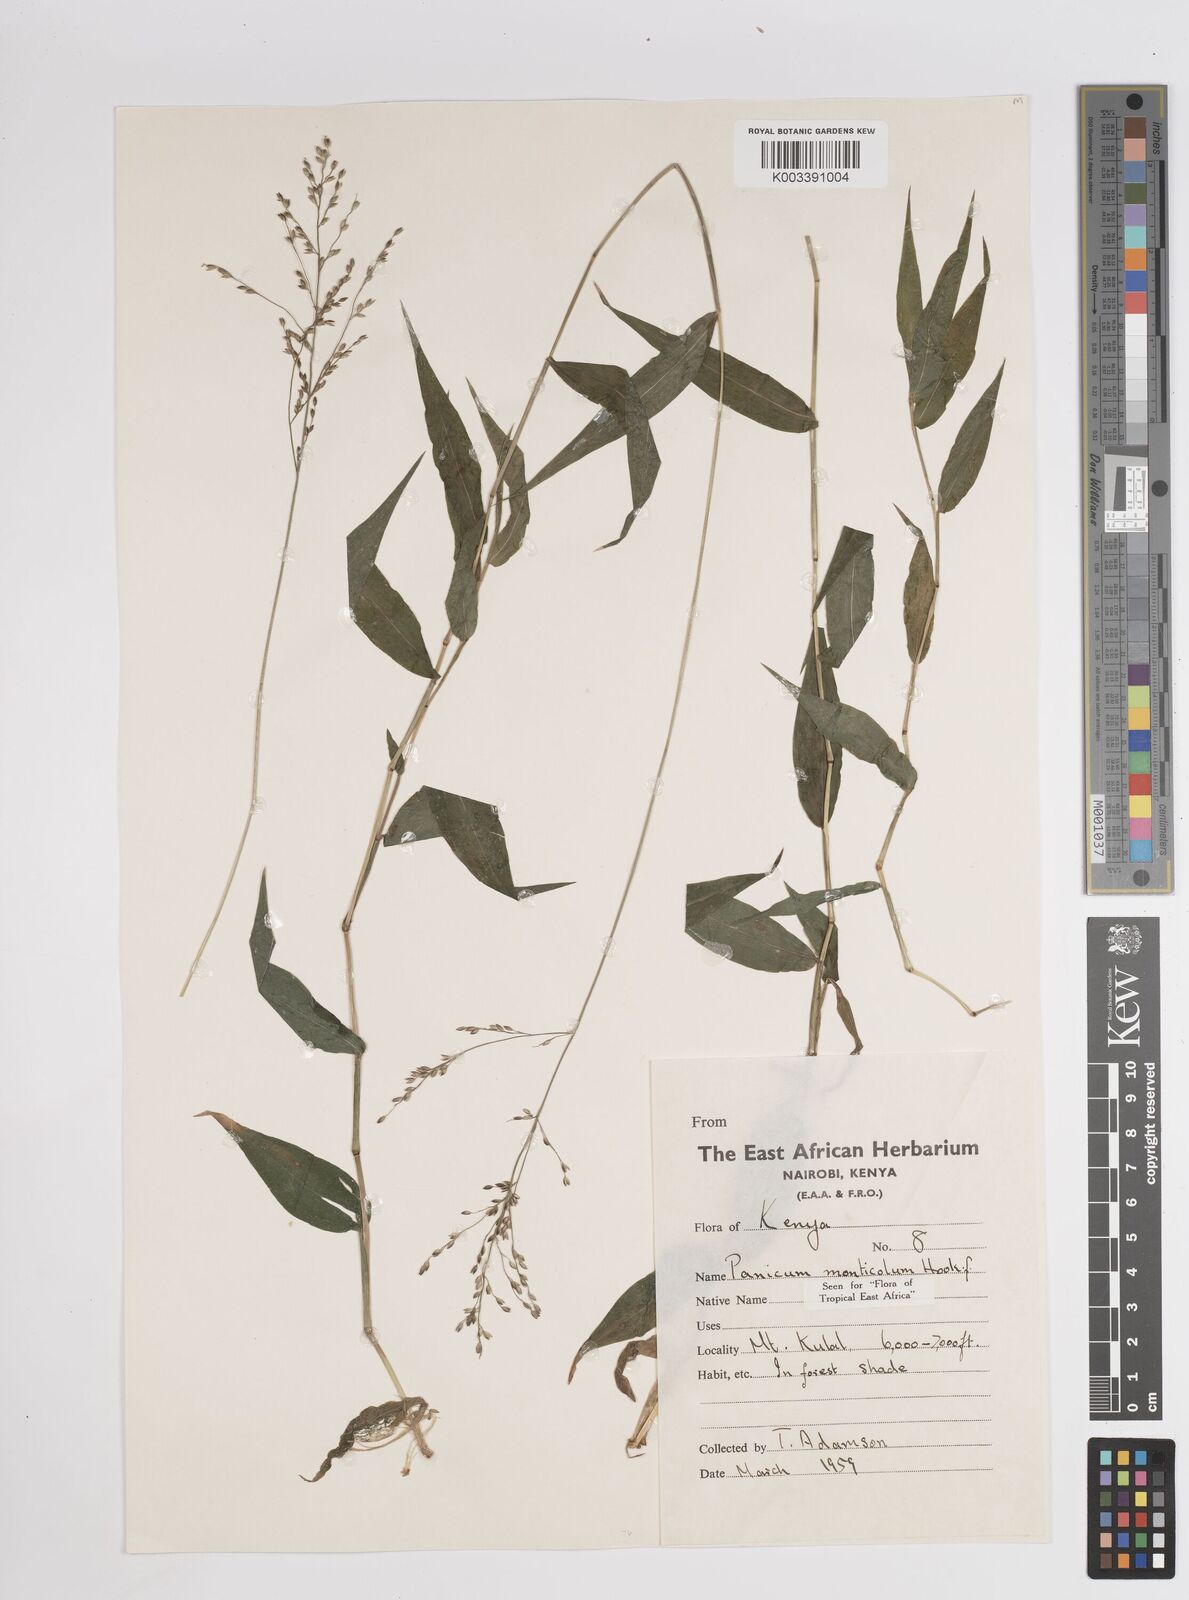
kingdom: Plantae
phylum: Tracheophyta
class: Liliopsida
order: Poales
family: Poaceae
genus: Panicum
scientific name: Panicum monticola
